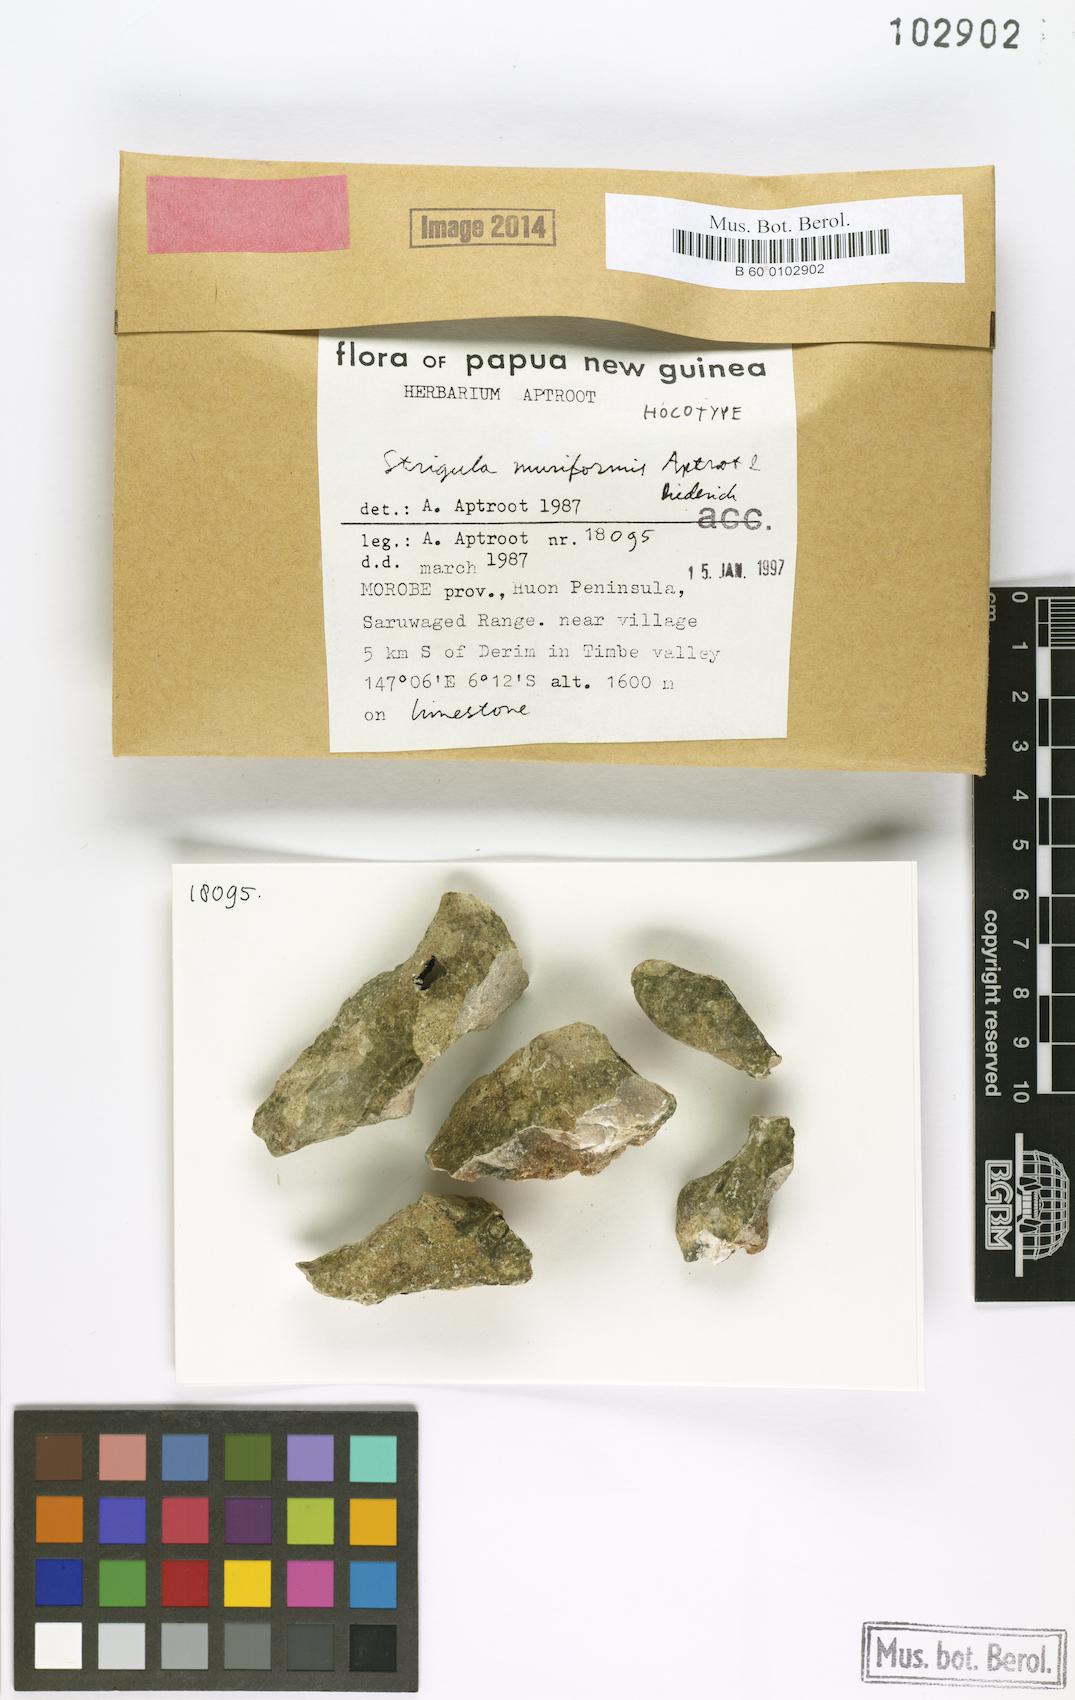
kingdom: Fungi
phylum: Ascomycota
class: Dothideomycetes
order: Strigulales
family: Strigulaceae
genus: Swinscowia
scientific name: Swinscowia muriformis
